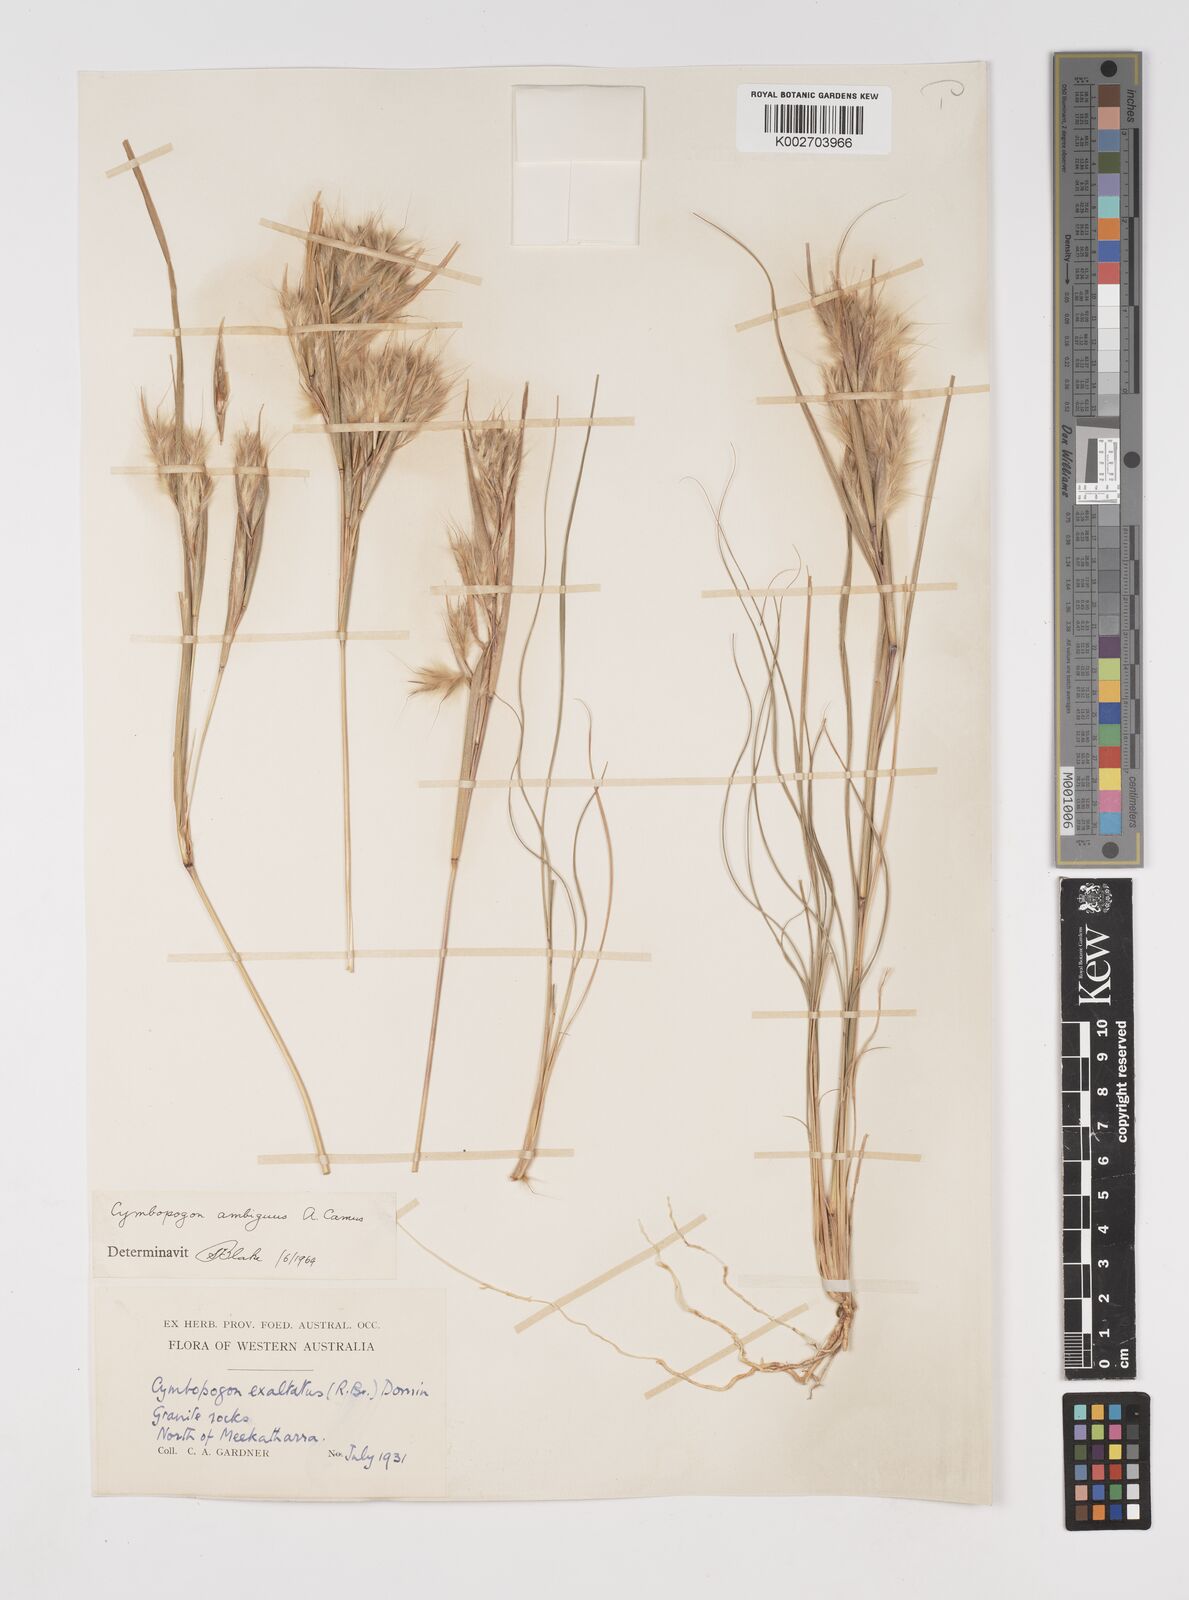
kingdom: Plantae
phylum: Tracheophyta
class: Liliopsida
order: Poales
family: Poaceae
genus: Cymbopogon
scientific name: Cymbopogon ambiguus
